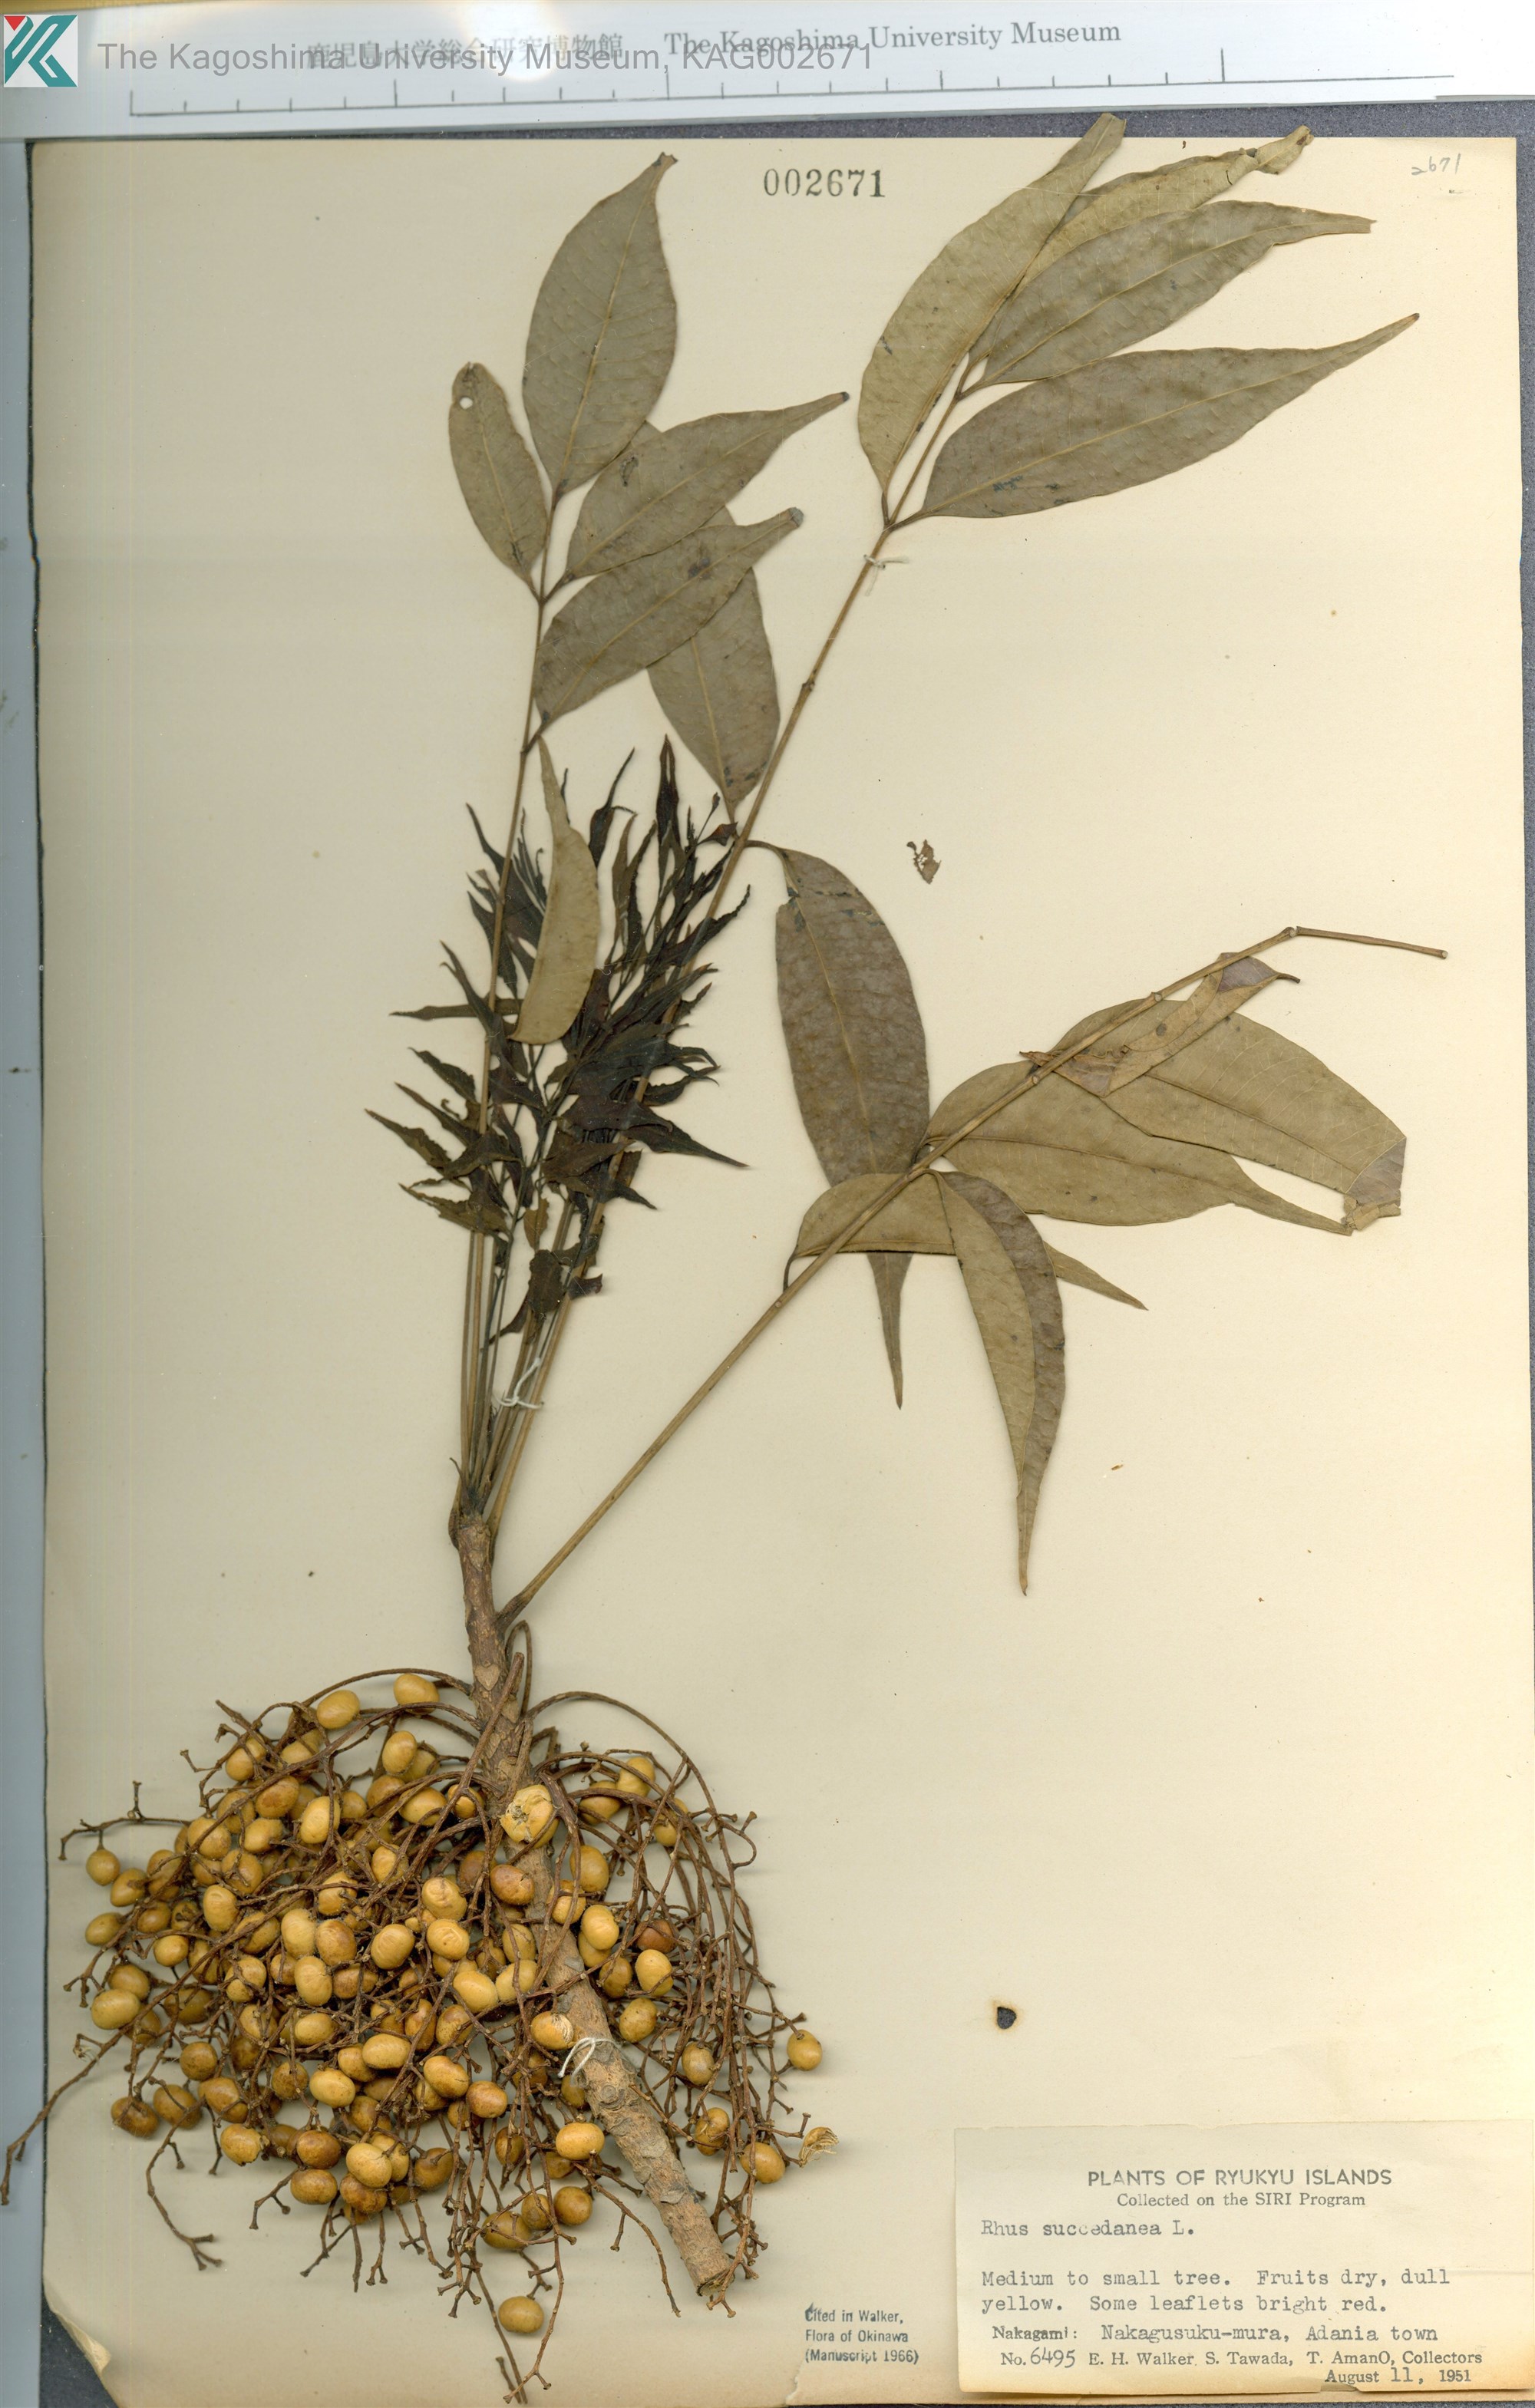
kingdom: Plantae
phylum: Tracheophyta
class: Magnoliopsida
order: Sapindales
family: Anacardiaceae
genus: Toxicodendron
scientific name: Toxicodendron succedaneum
